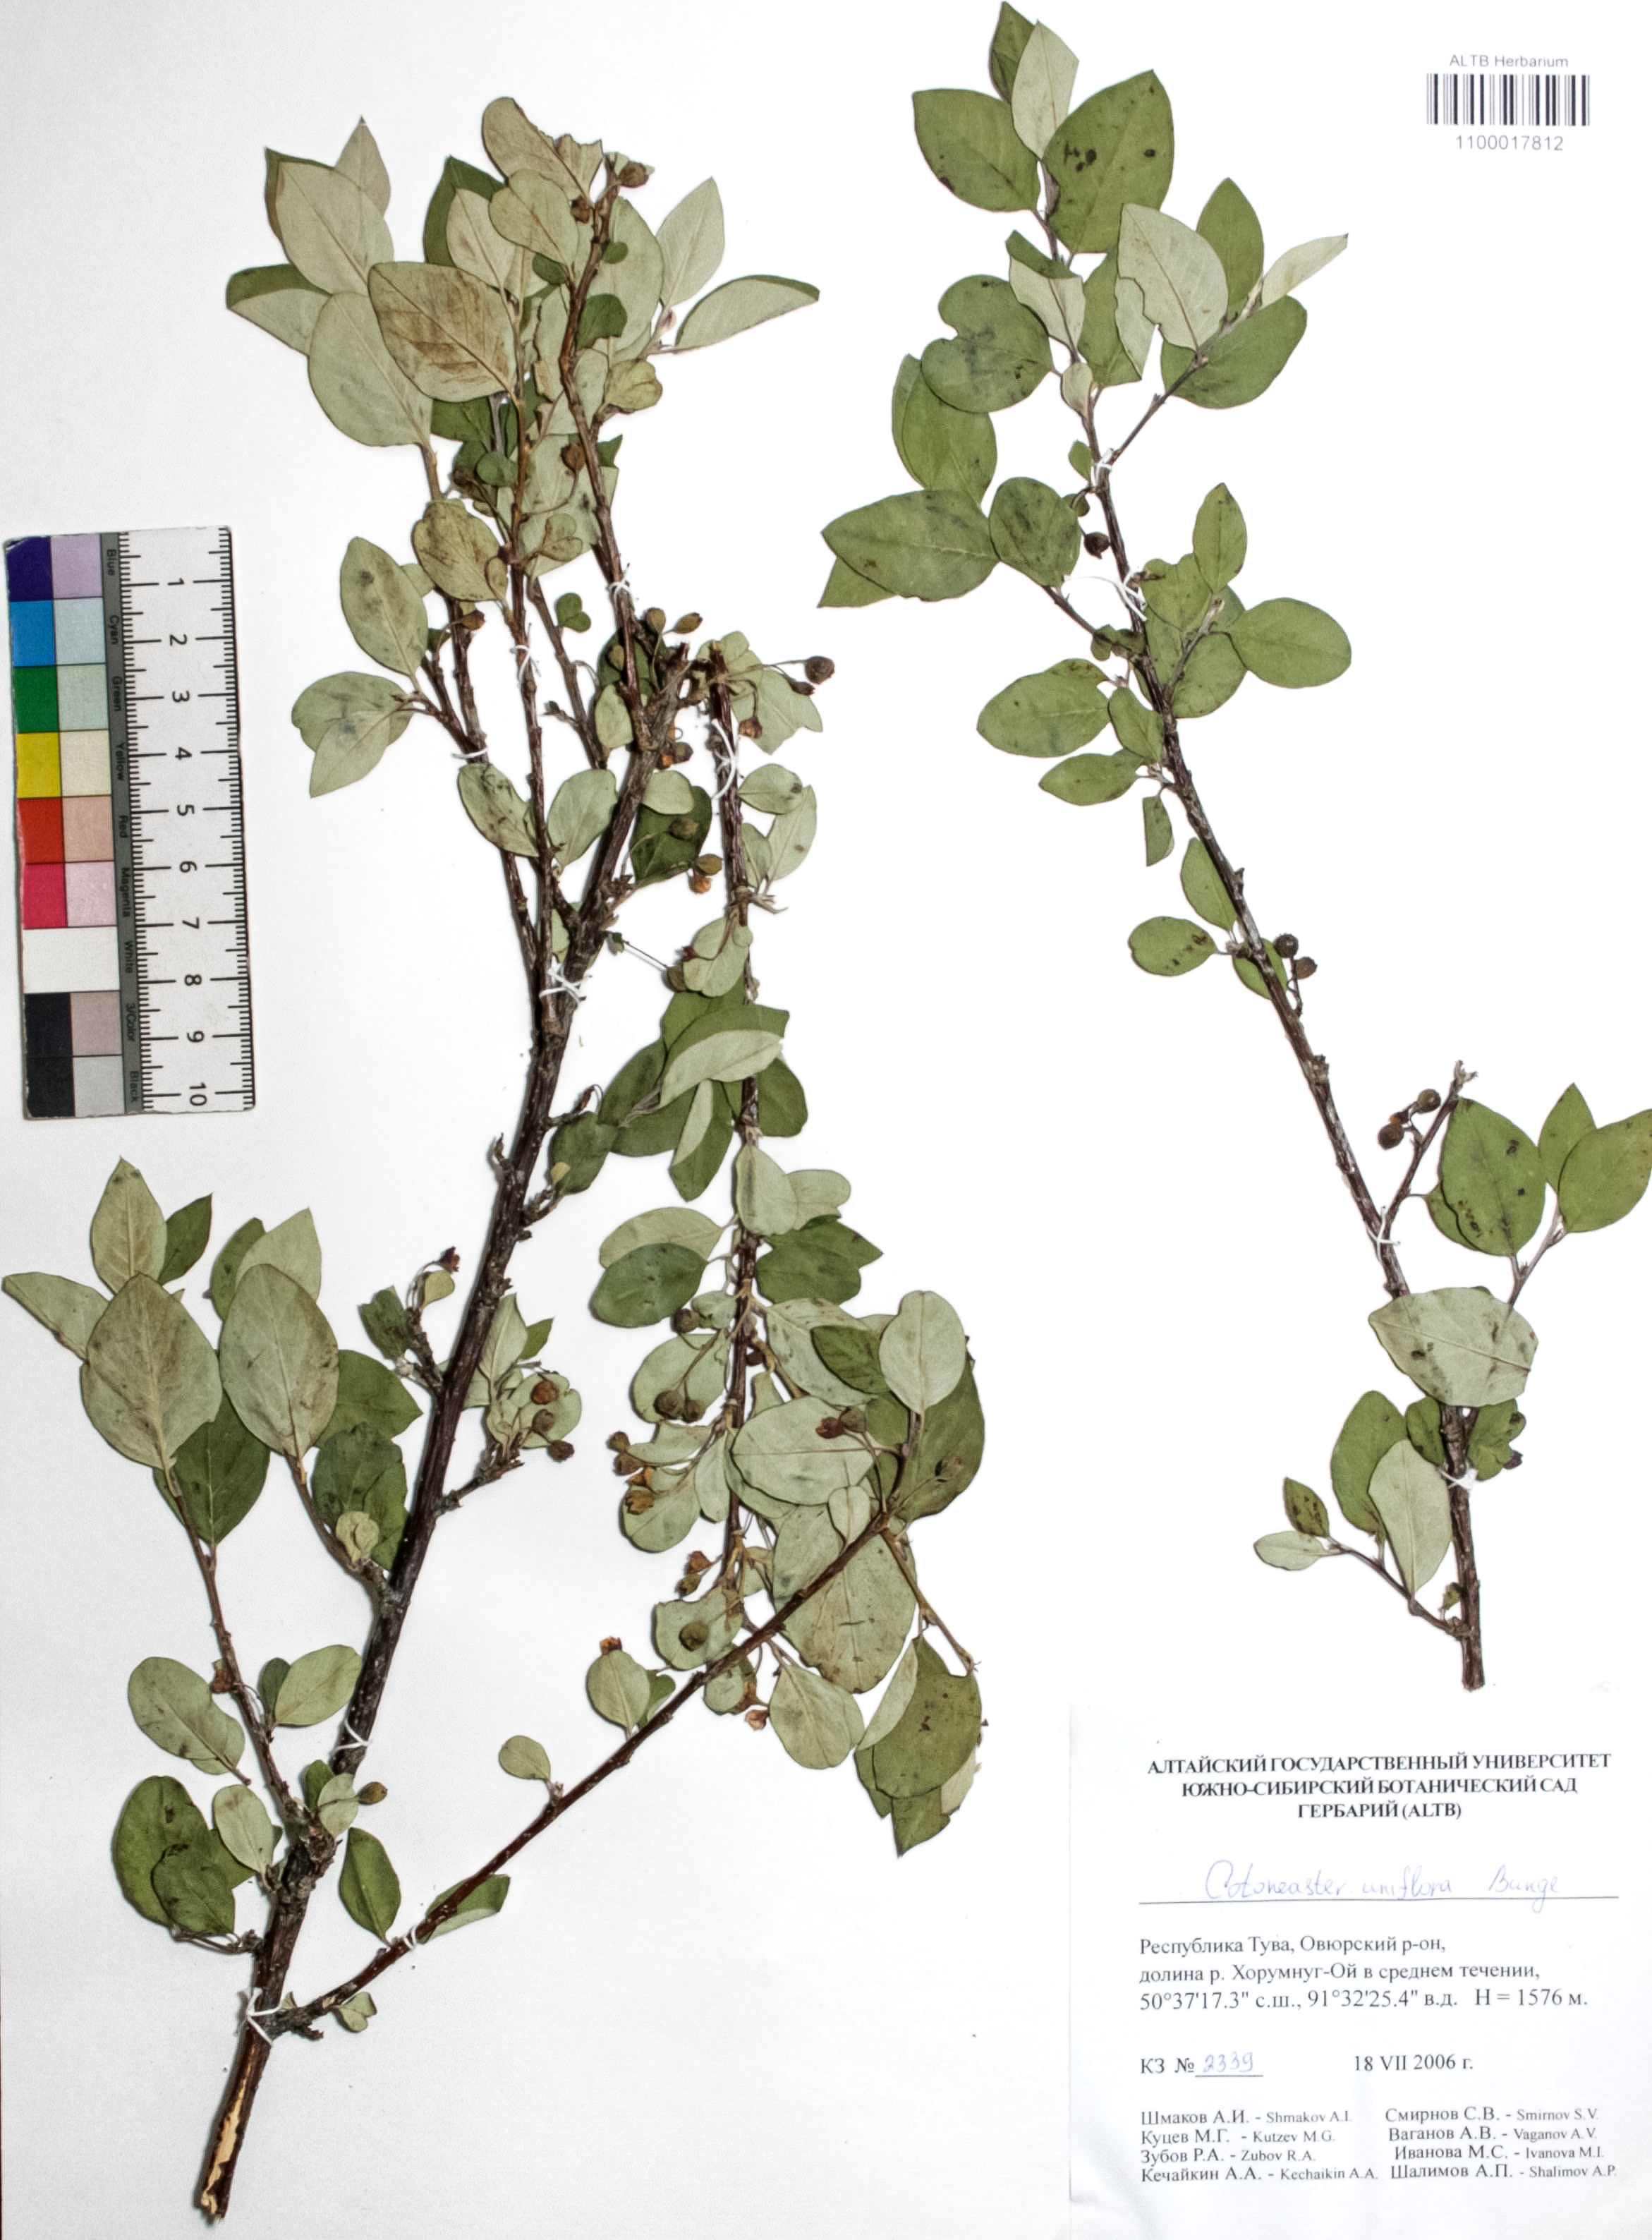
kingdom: Plantae
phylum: Tracheophyta
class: Magnoliopsida
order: Rosales
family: Rosaceae
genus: Cotoneaster
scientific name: Cotoneaster uniflorus
